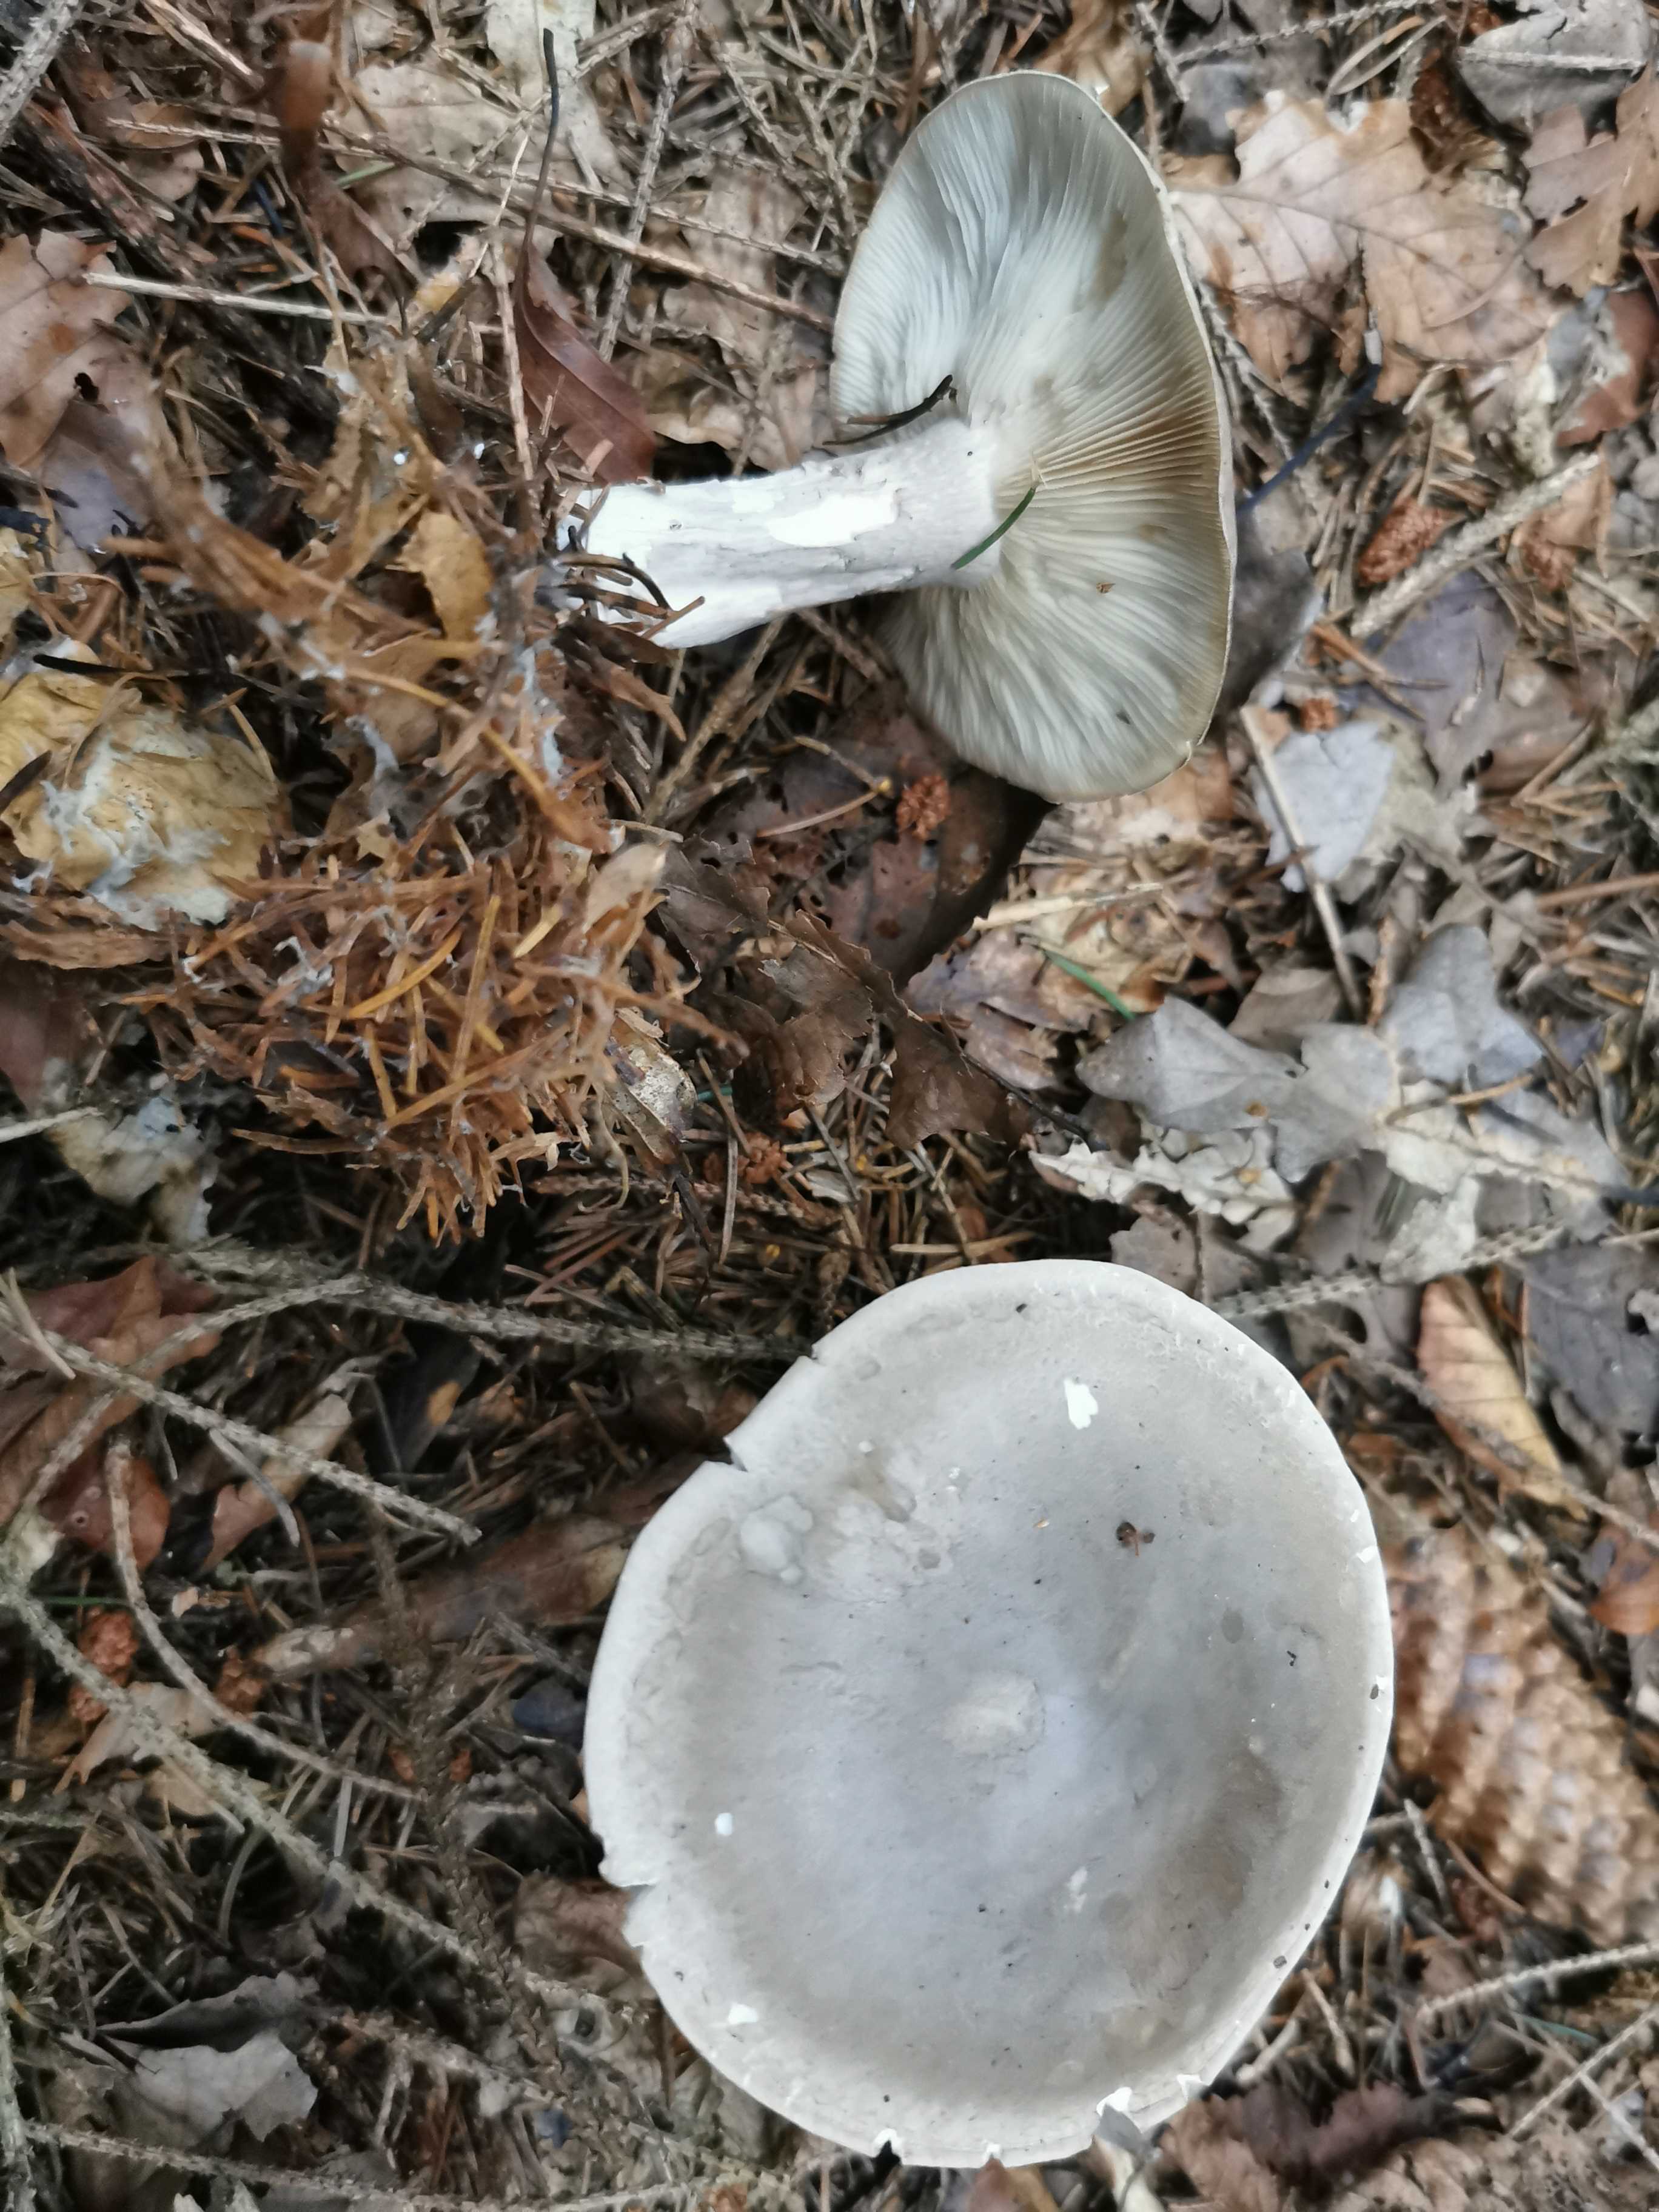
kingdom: Fungi
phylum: Basidiomycota
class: Agaricomycetes
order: Agaricales
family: Tricholomataceae
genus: Clitocybe
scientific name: Clitocybe nebularis
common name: tåge-tragthat
